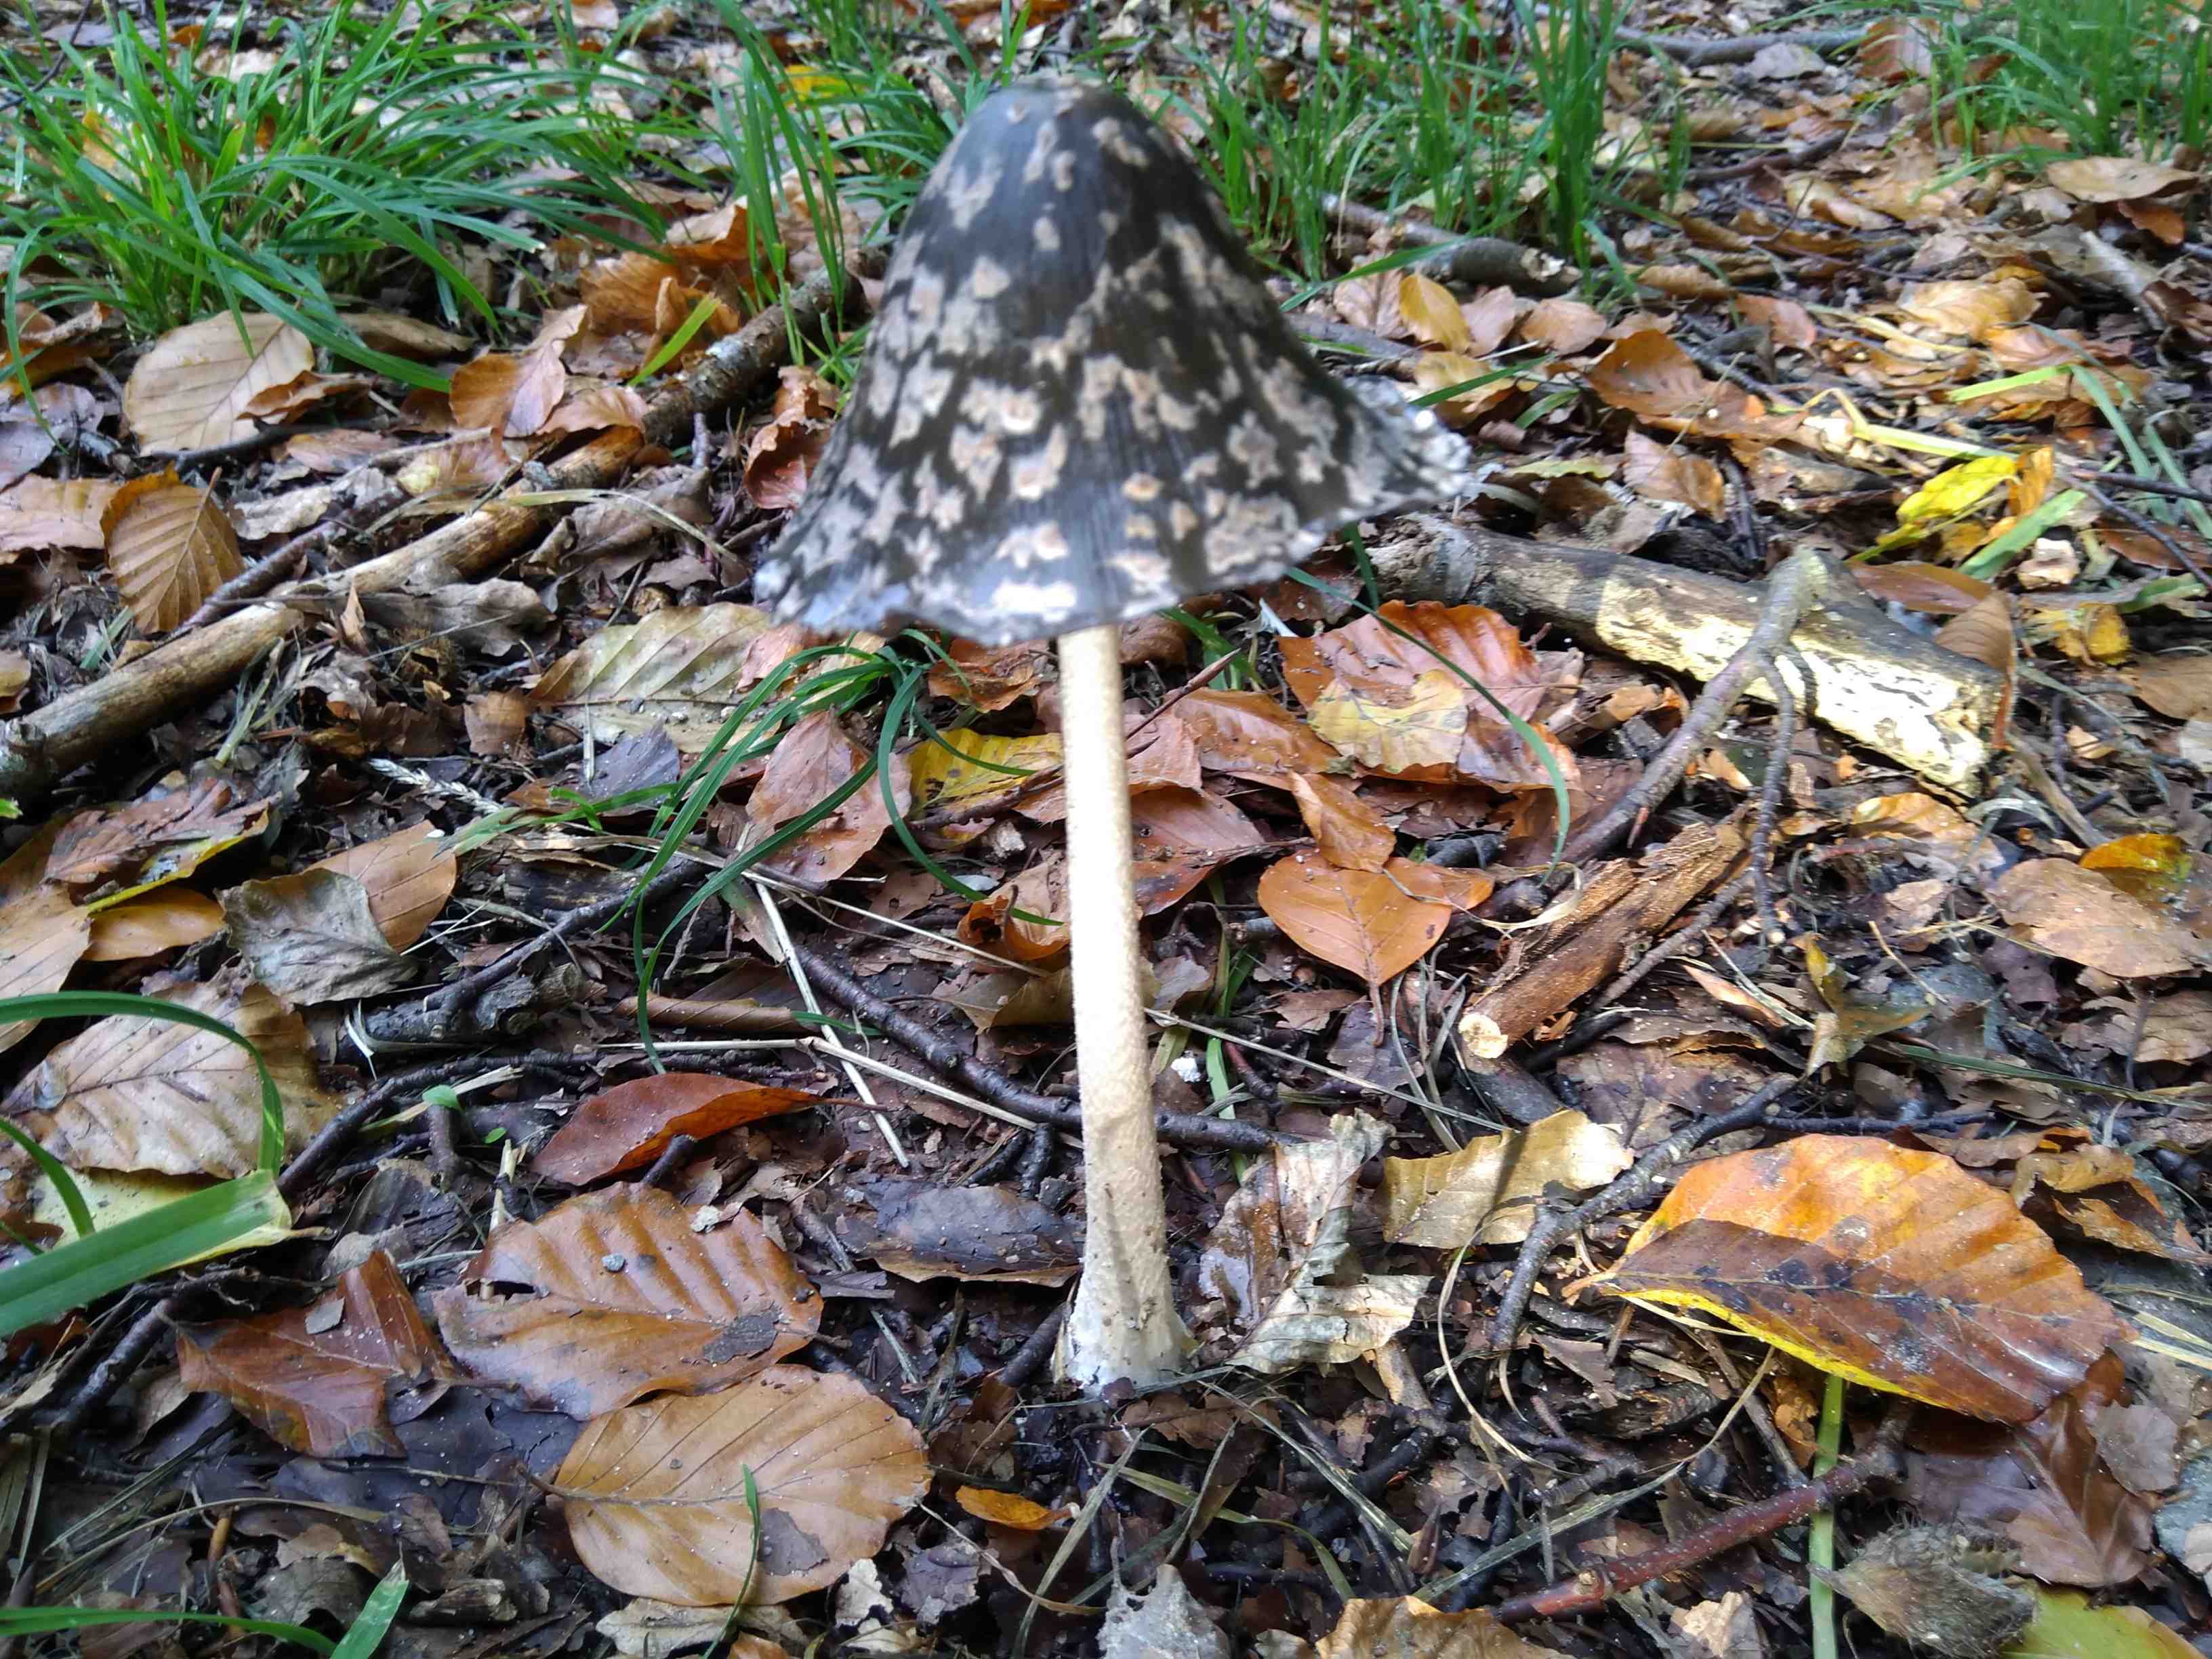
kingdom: Fungi
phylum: Basidiomycota
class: Agaricomycetes
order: Agaricales
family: Psathyrellaceae
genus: Coprinopsis
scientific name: Coprinopsis picacea
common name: skade-blækhat
